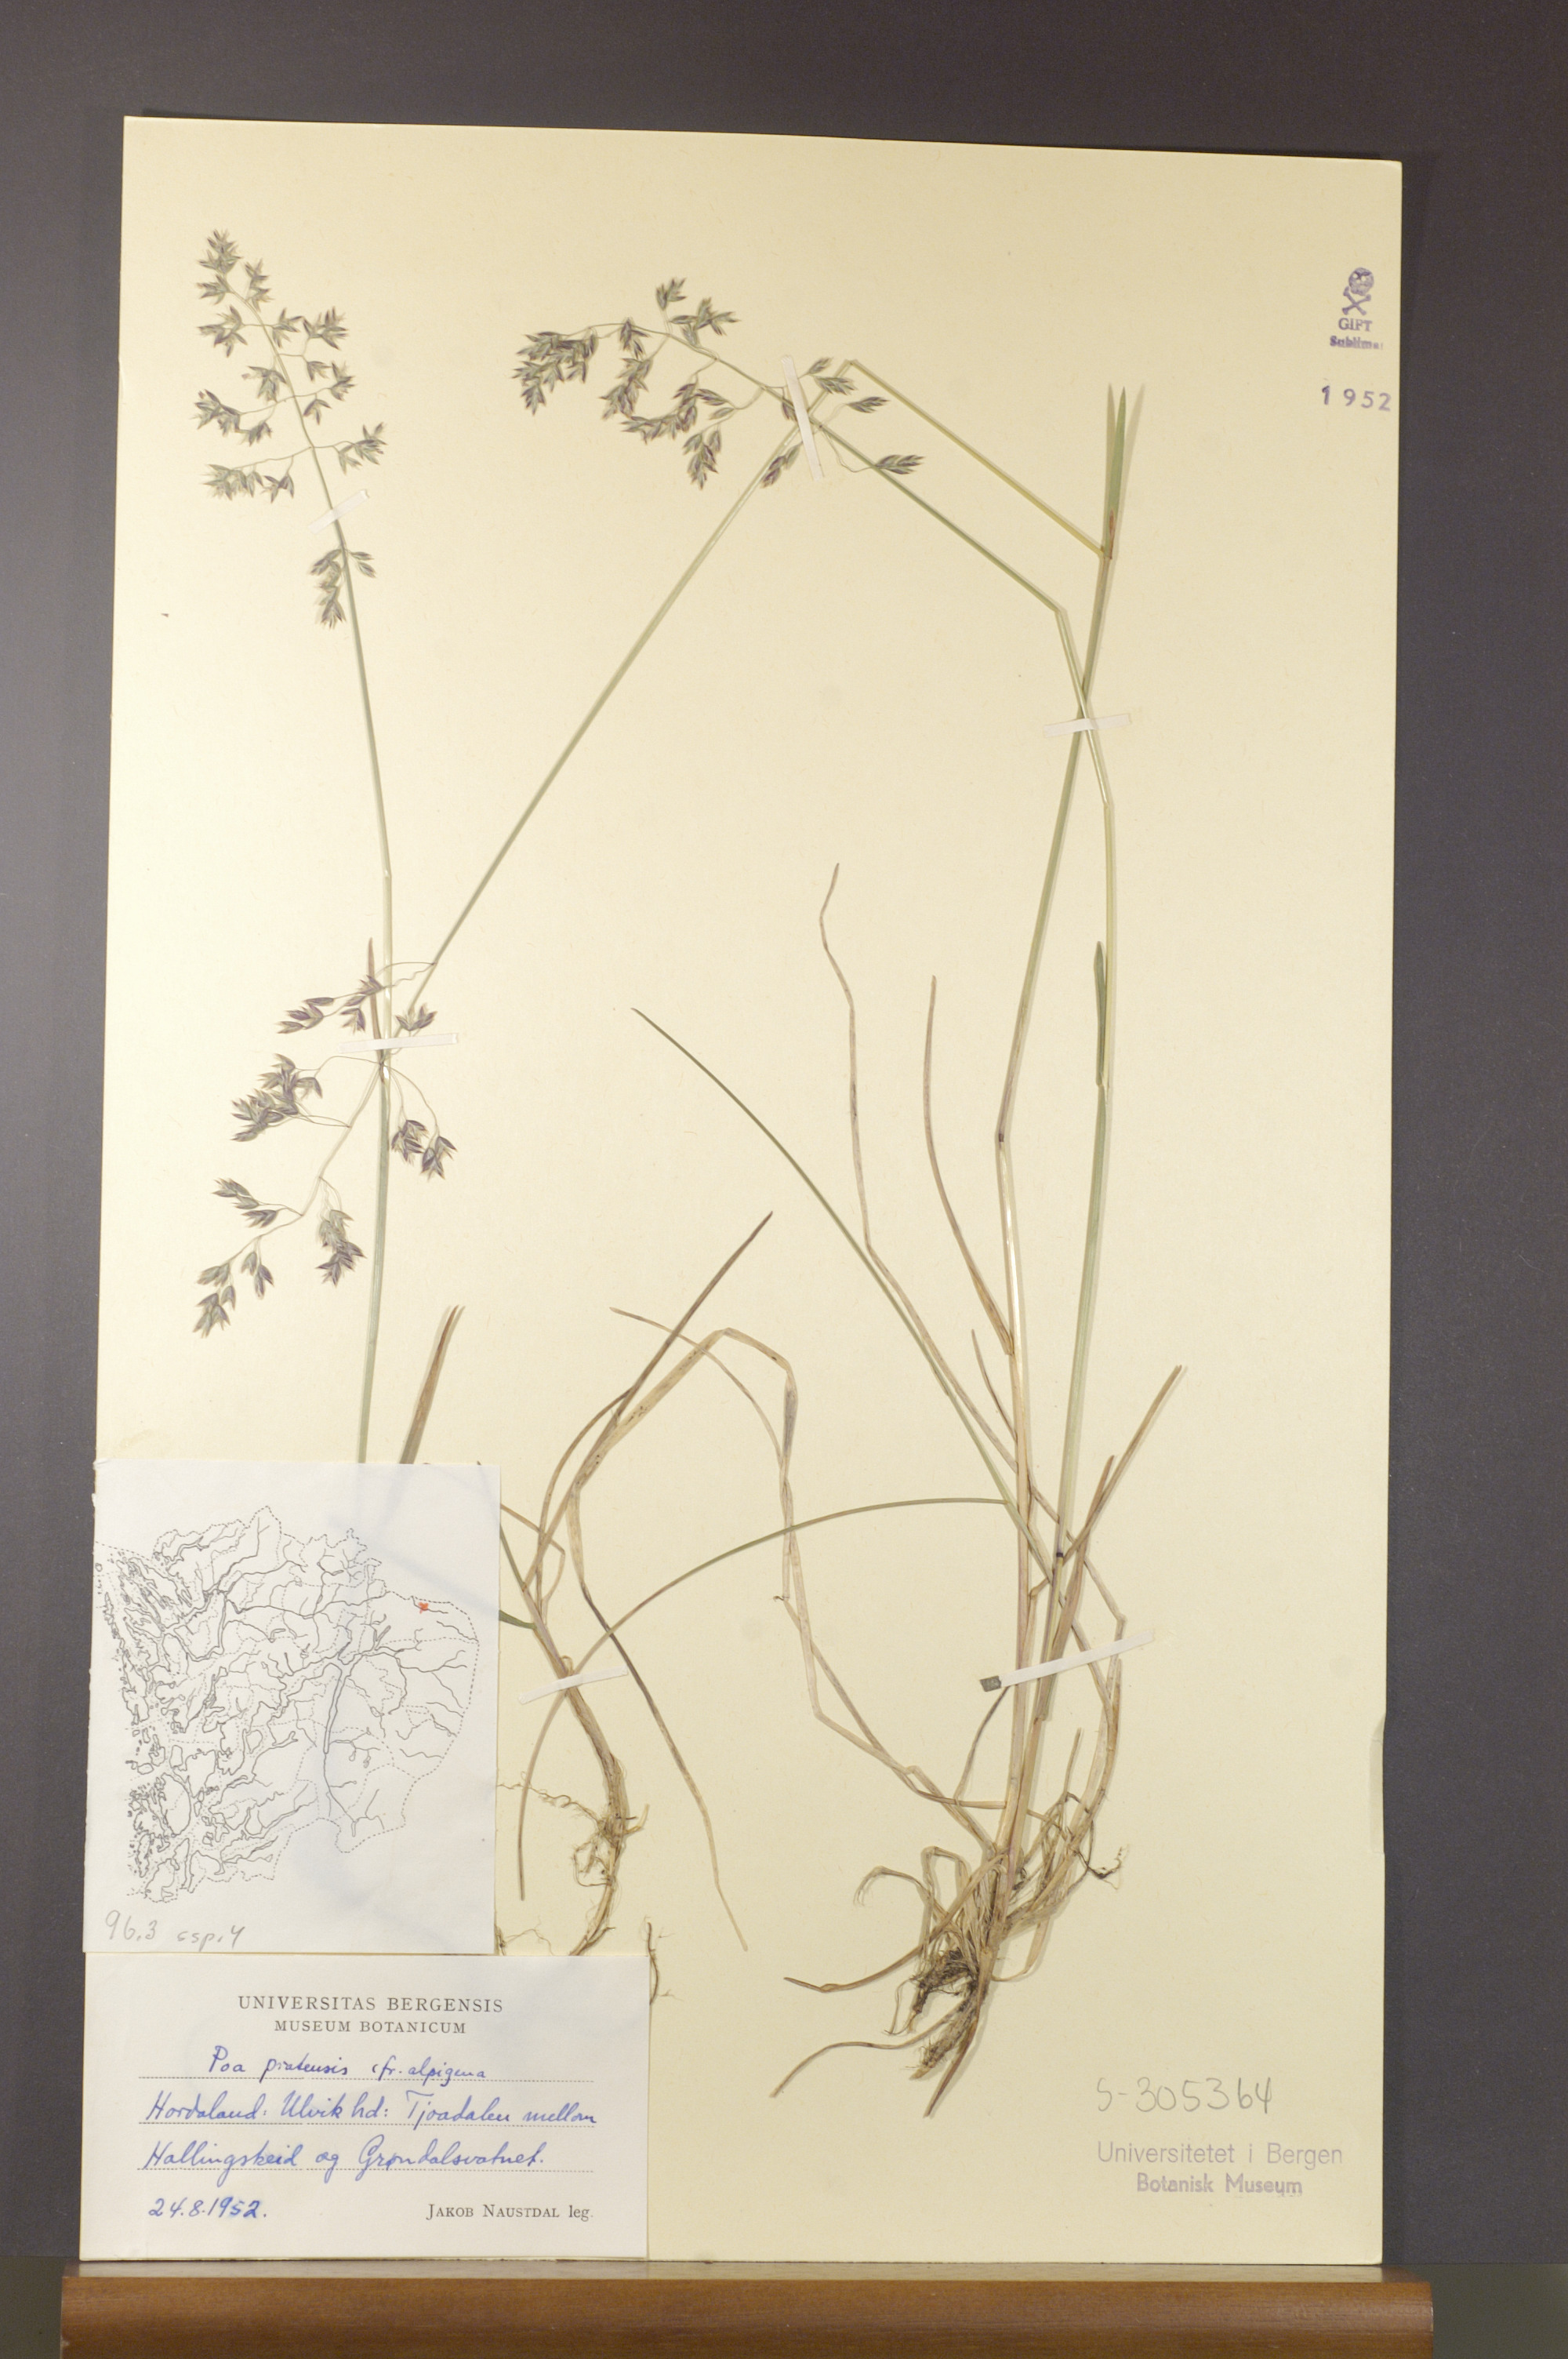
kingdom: Plantae
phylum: Tracheophyta
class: Liliopsida
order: Poales
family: Poaceae
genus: Poa
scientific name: Poa alpigena
